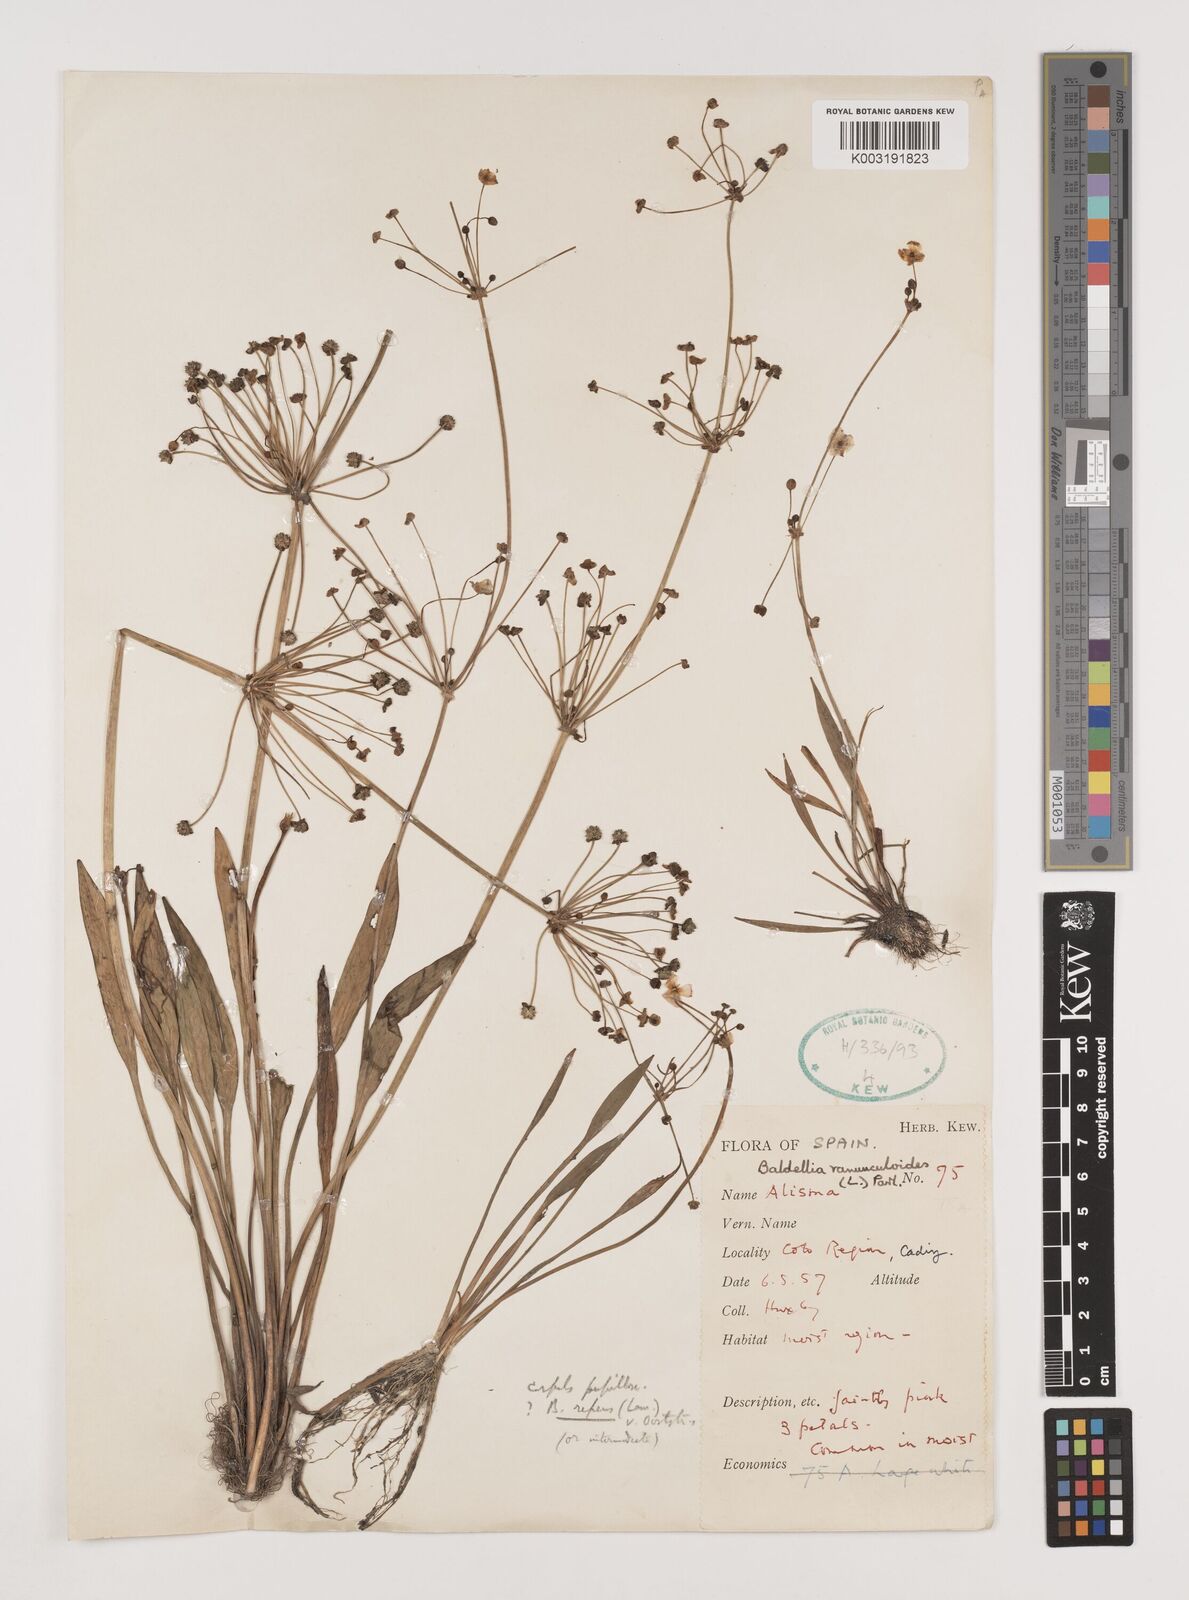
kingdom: Plantae
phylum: Tracheophyta
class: Liliopsida
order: Alismatales
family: Alismataceae
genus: Baldellia
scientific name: Baldellia ranunculoides
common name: Lesser water-plantain
